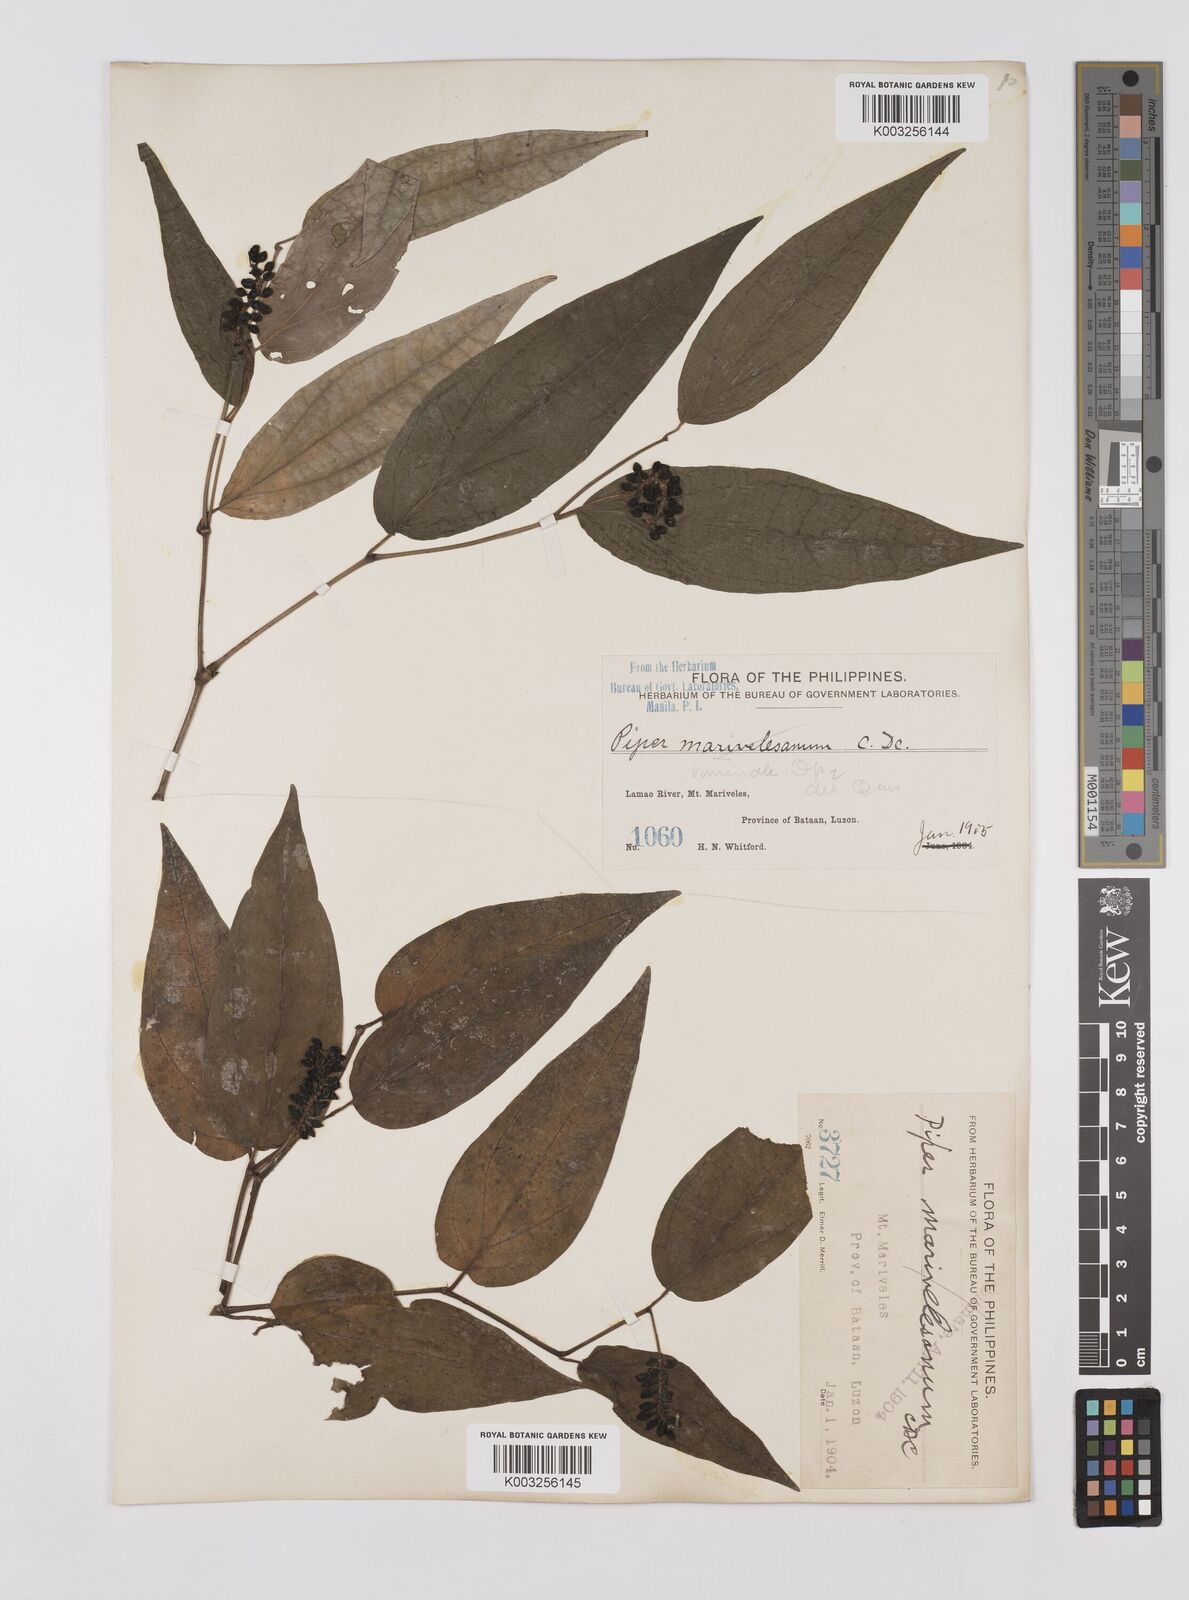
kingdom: Plantae
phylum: Tracheophyta
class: Magnoliopsida
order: Piperales
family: Piperaceae
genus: Piper
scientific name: Piper lanatum
